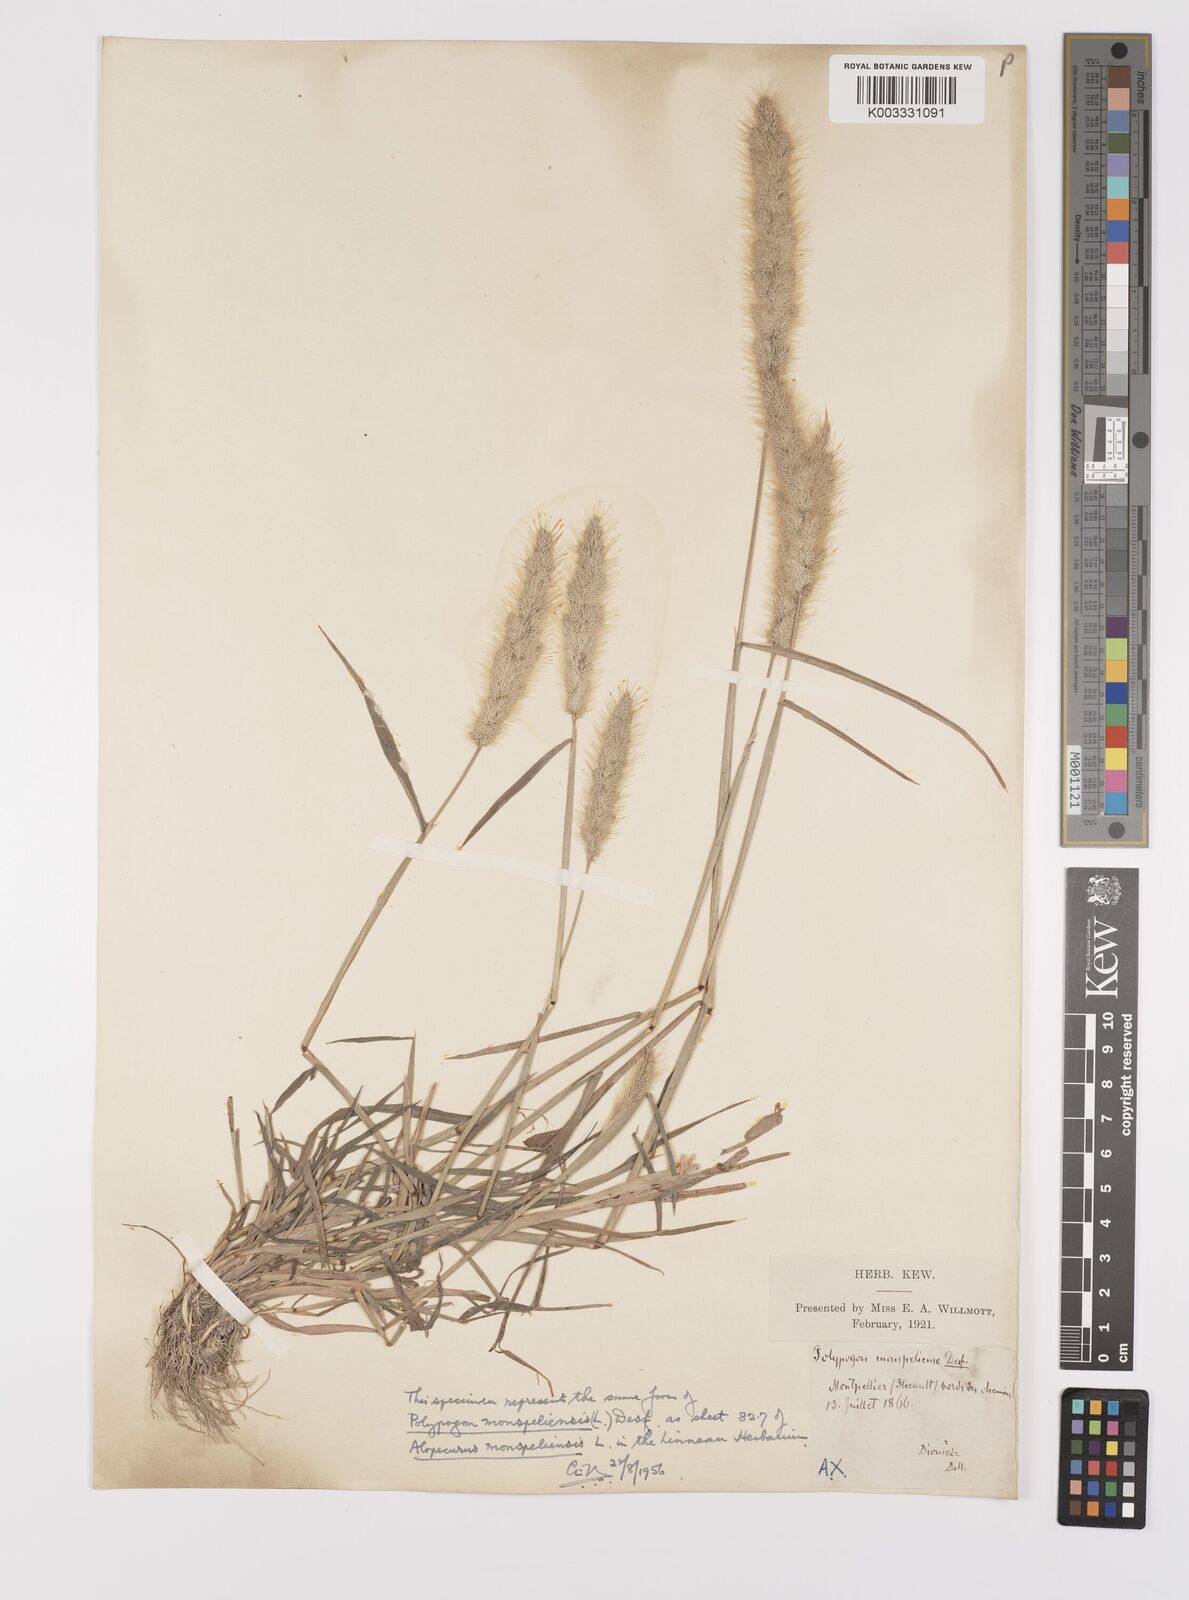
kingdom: Plantae
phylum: Tracheophyta
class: Liliopsida
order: Poales
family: Poaceae
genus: Polypogon
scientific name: Polypogon monspeliensis
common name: Annual rabbitsfoot grass
